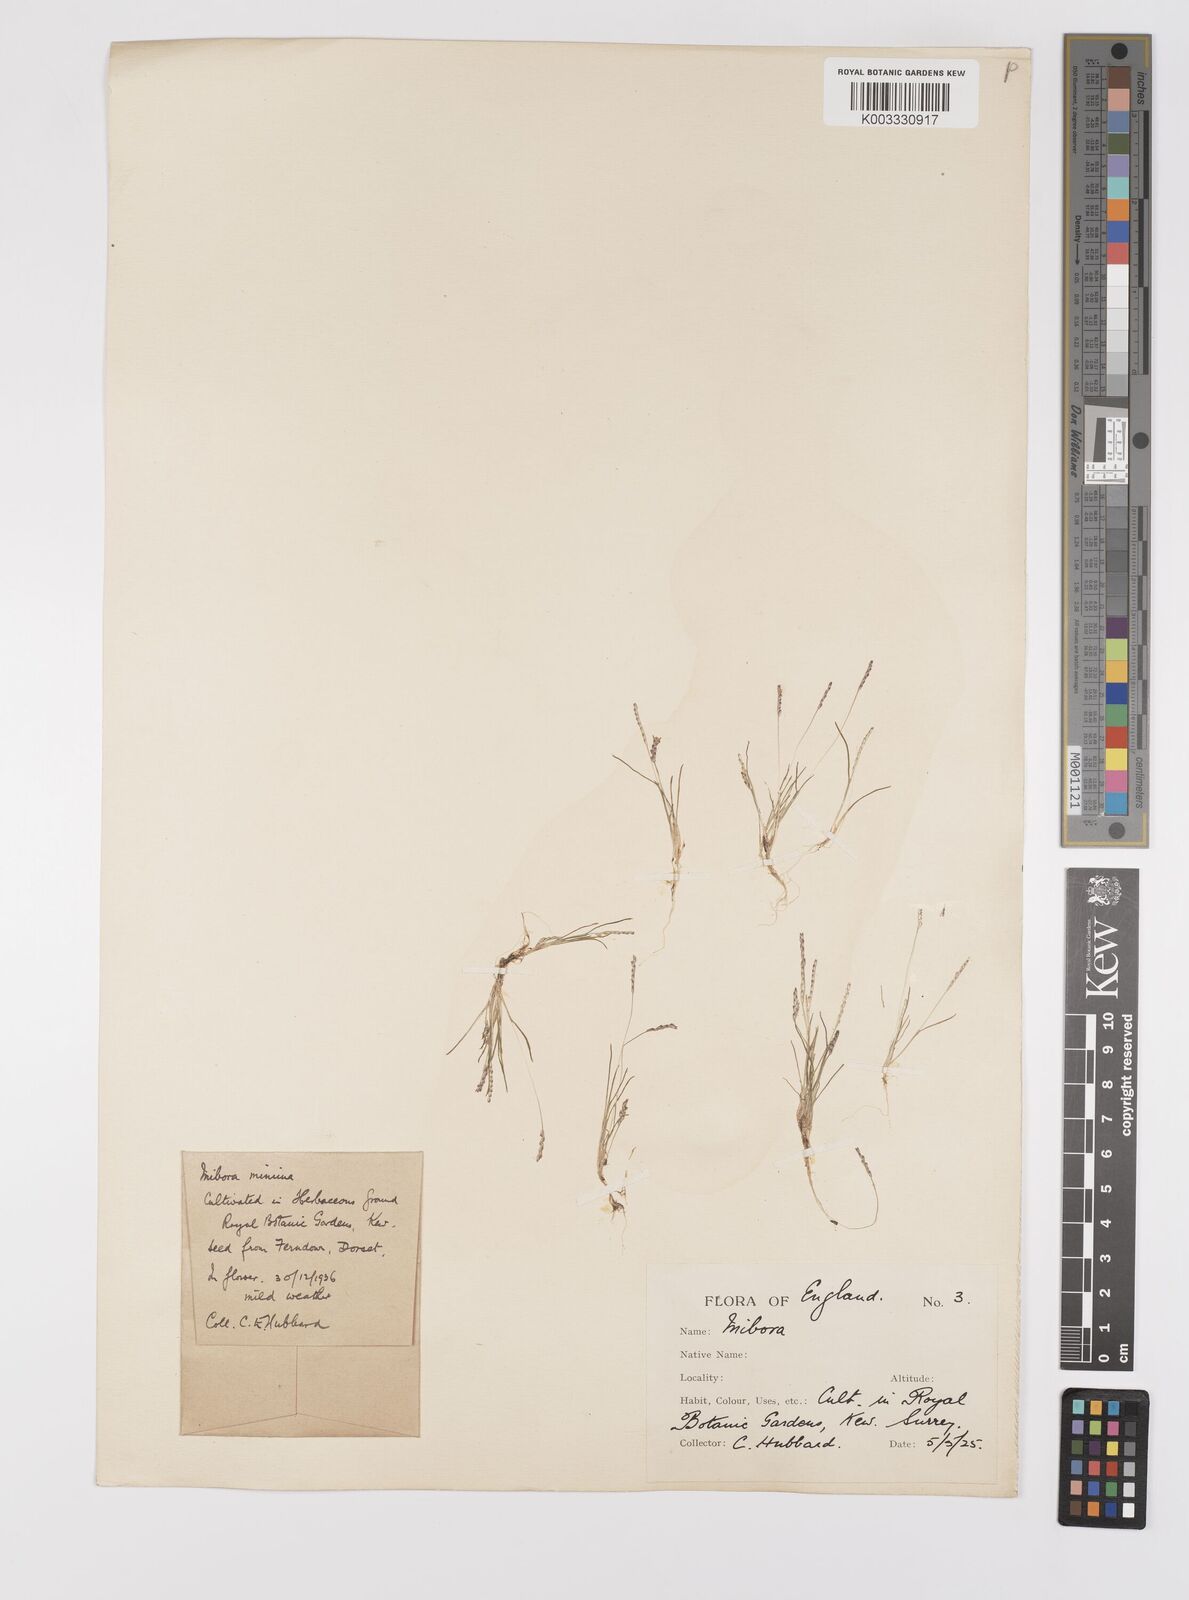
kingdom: Plantae
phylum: Tracheophyta
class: Liliopsida
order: Poales
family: Poaceae
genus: Mibora
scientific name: Mibora minima
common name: Early sand-grass
